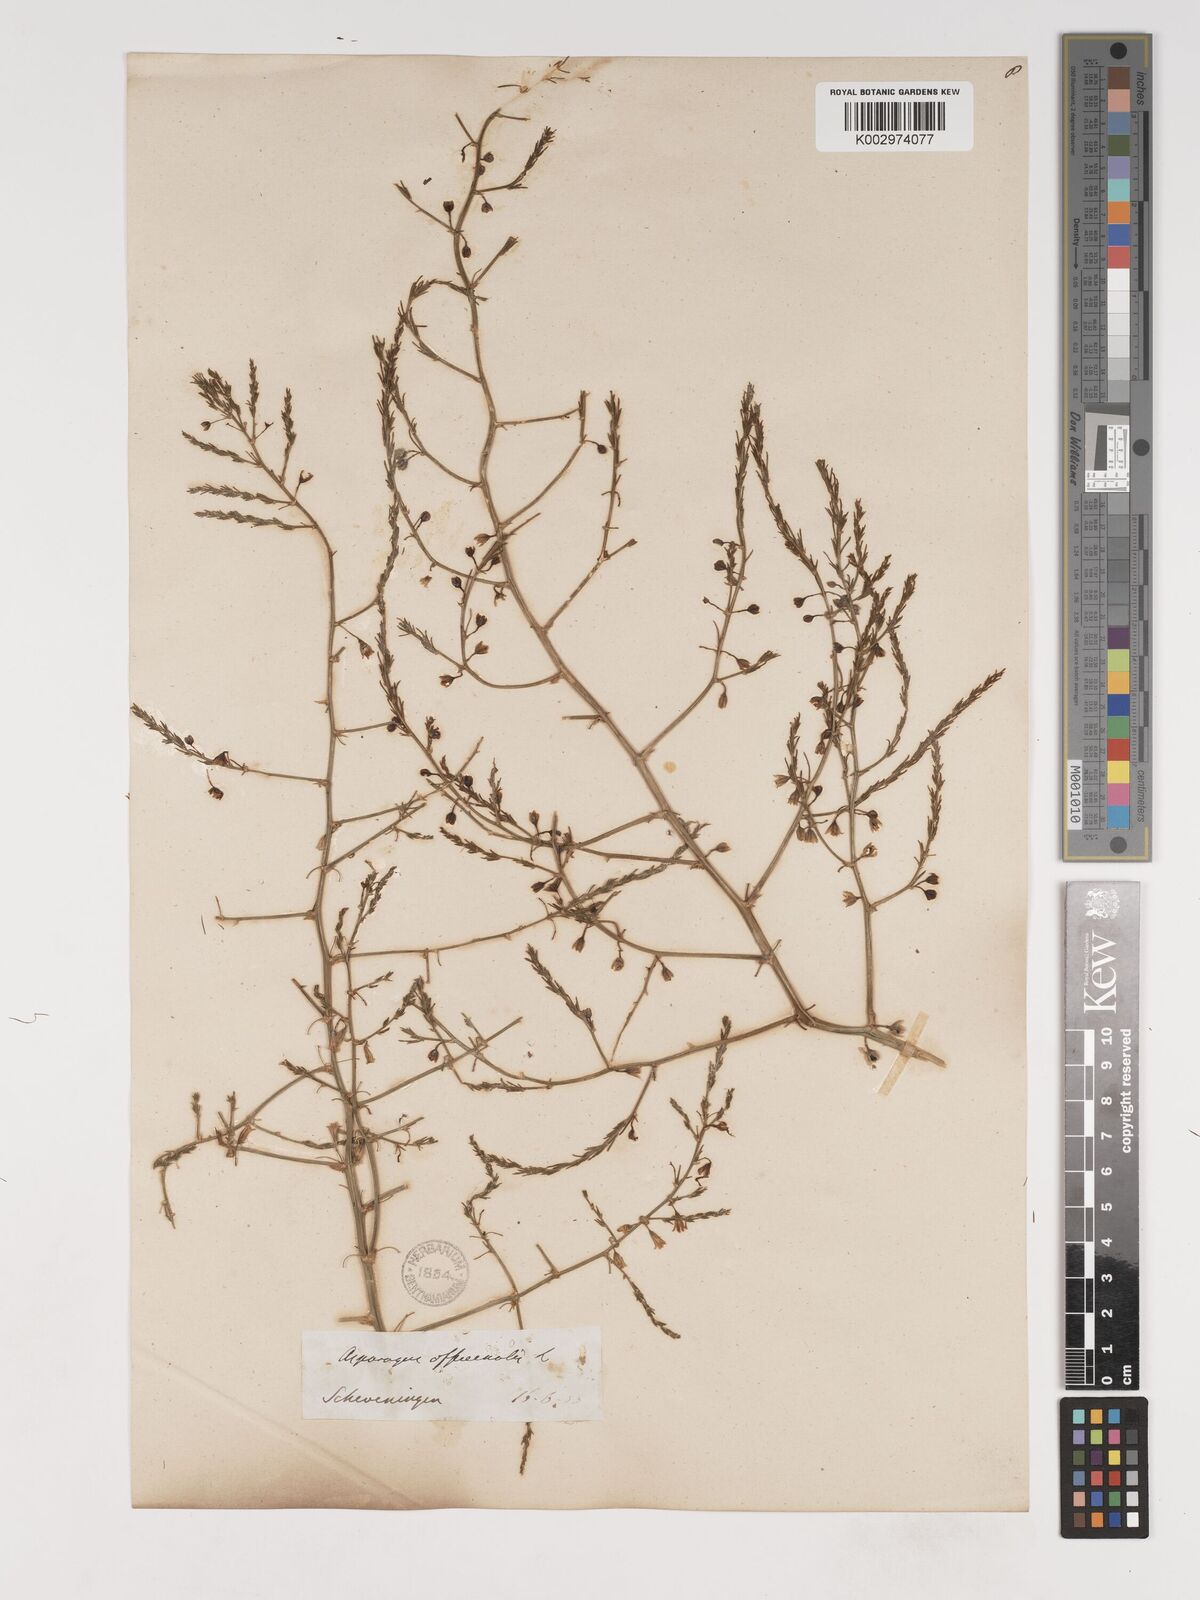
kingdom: Plantae
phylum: Tracheophyta
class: Liliopsida
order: Asparagales
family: Asparagaceae
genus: Asparagus
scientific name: Asparagus prostratus
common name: Wild asparagus
